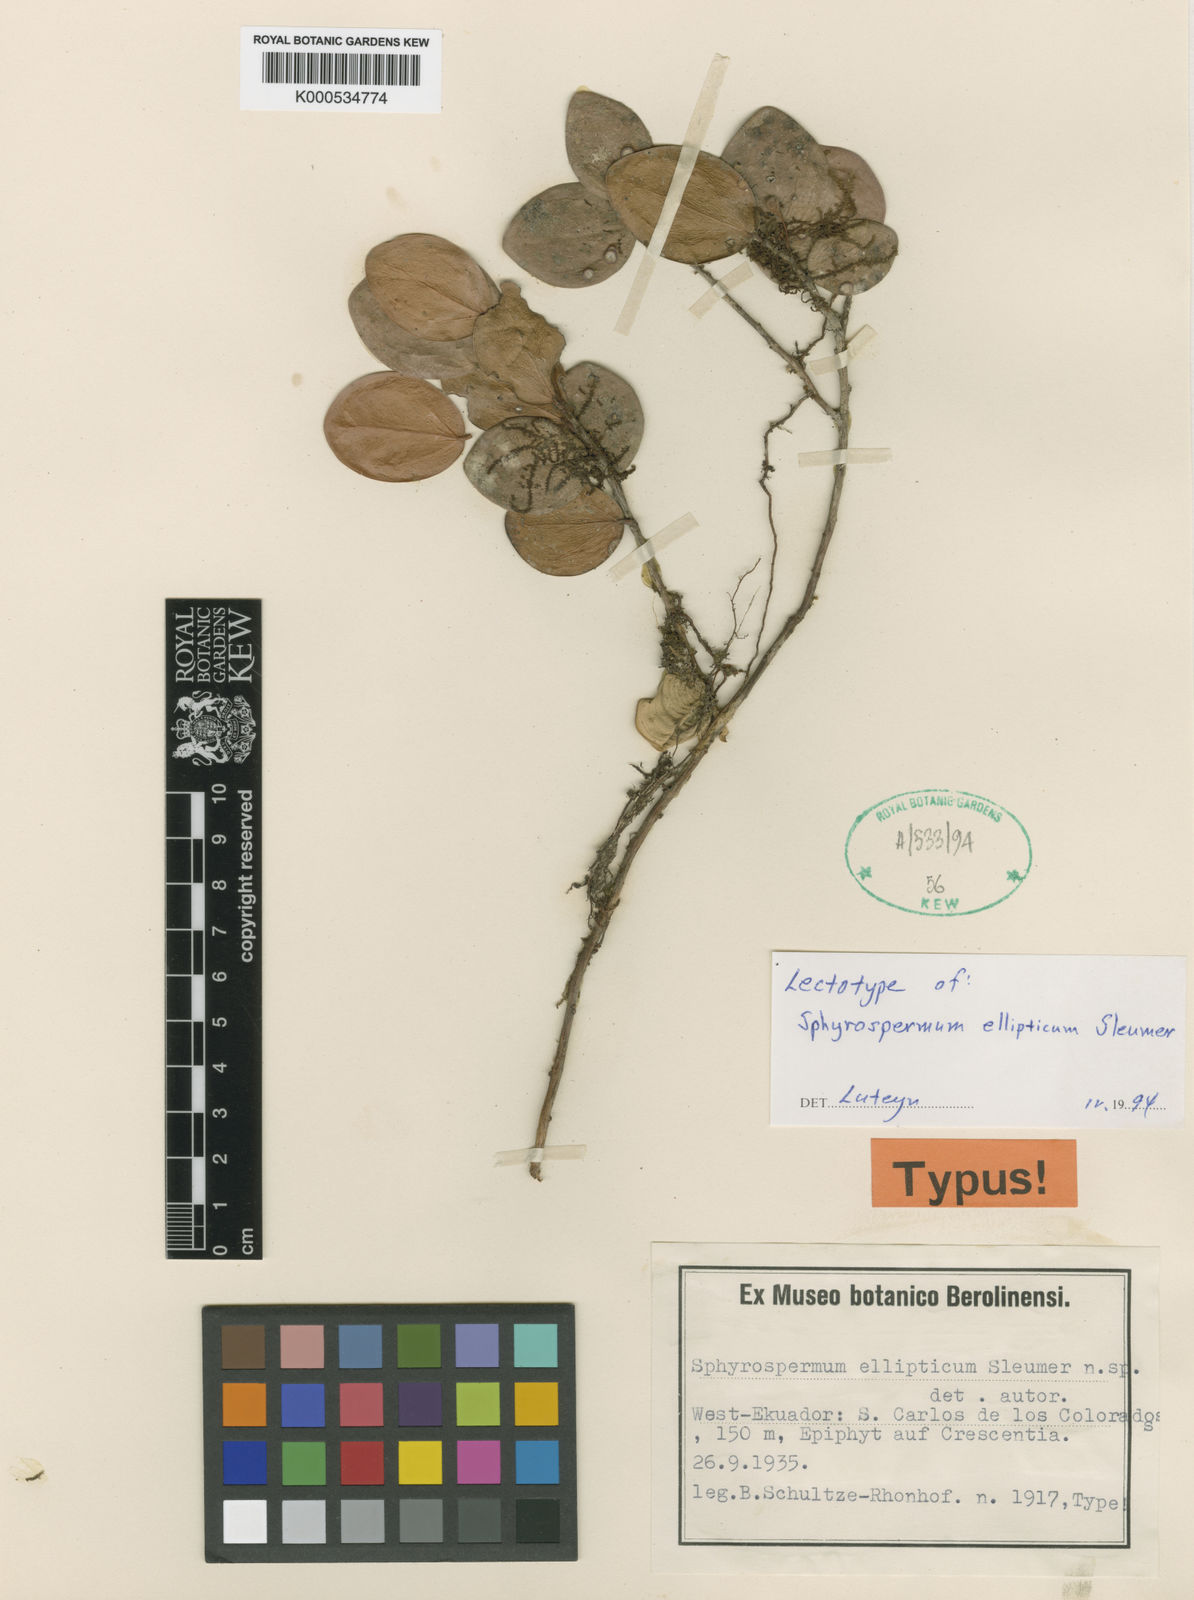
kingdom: Plantae
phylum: Tracheophyta
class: Magnoliopsida
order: Ericales
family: Ericaceae
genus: Sphyrospermum
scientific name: Sphyrospermum ellipticum
